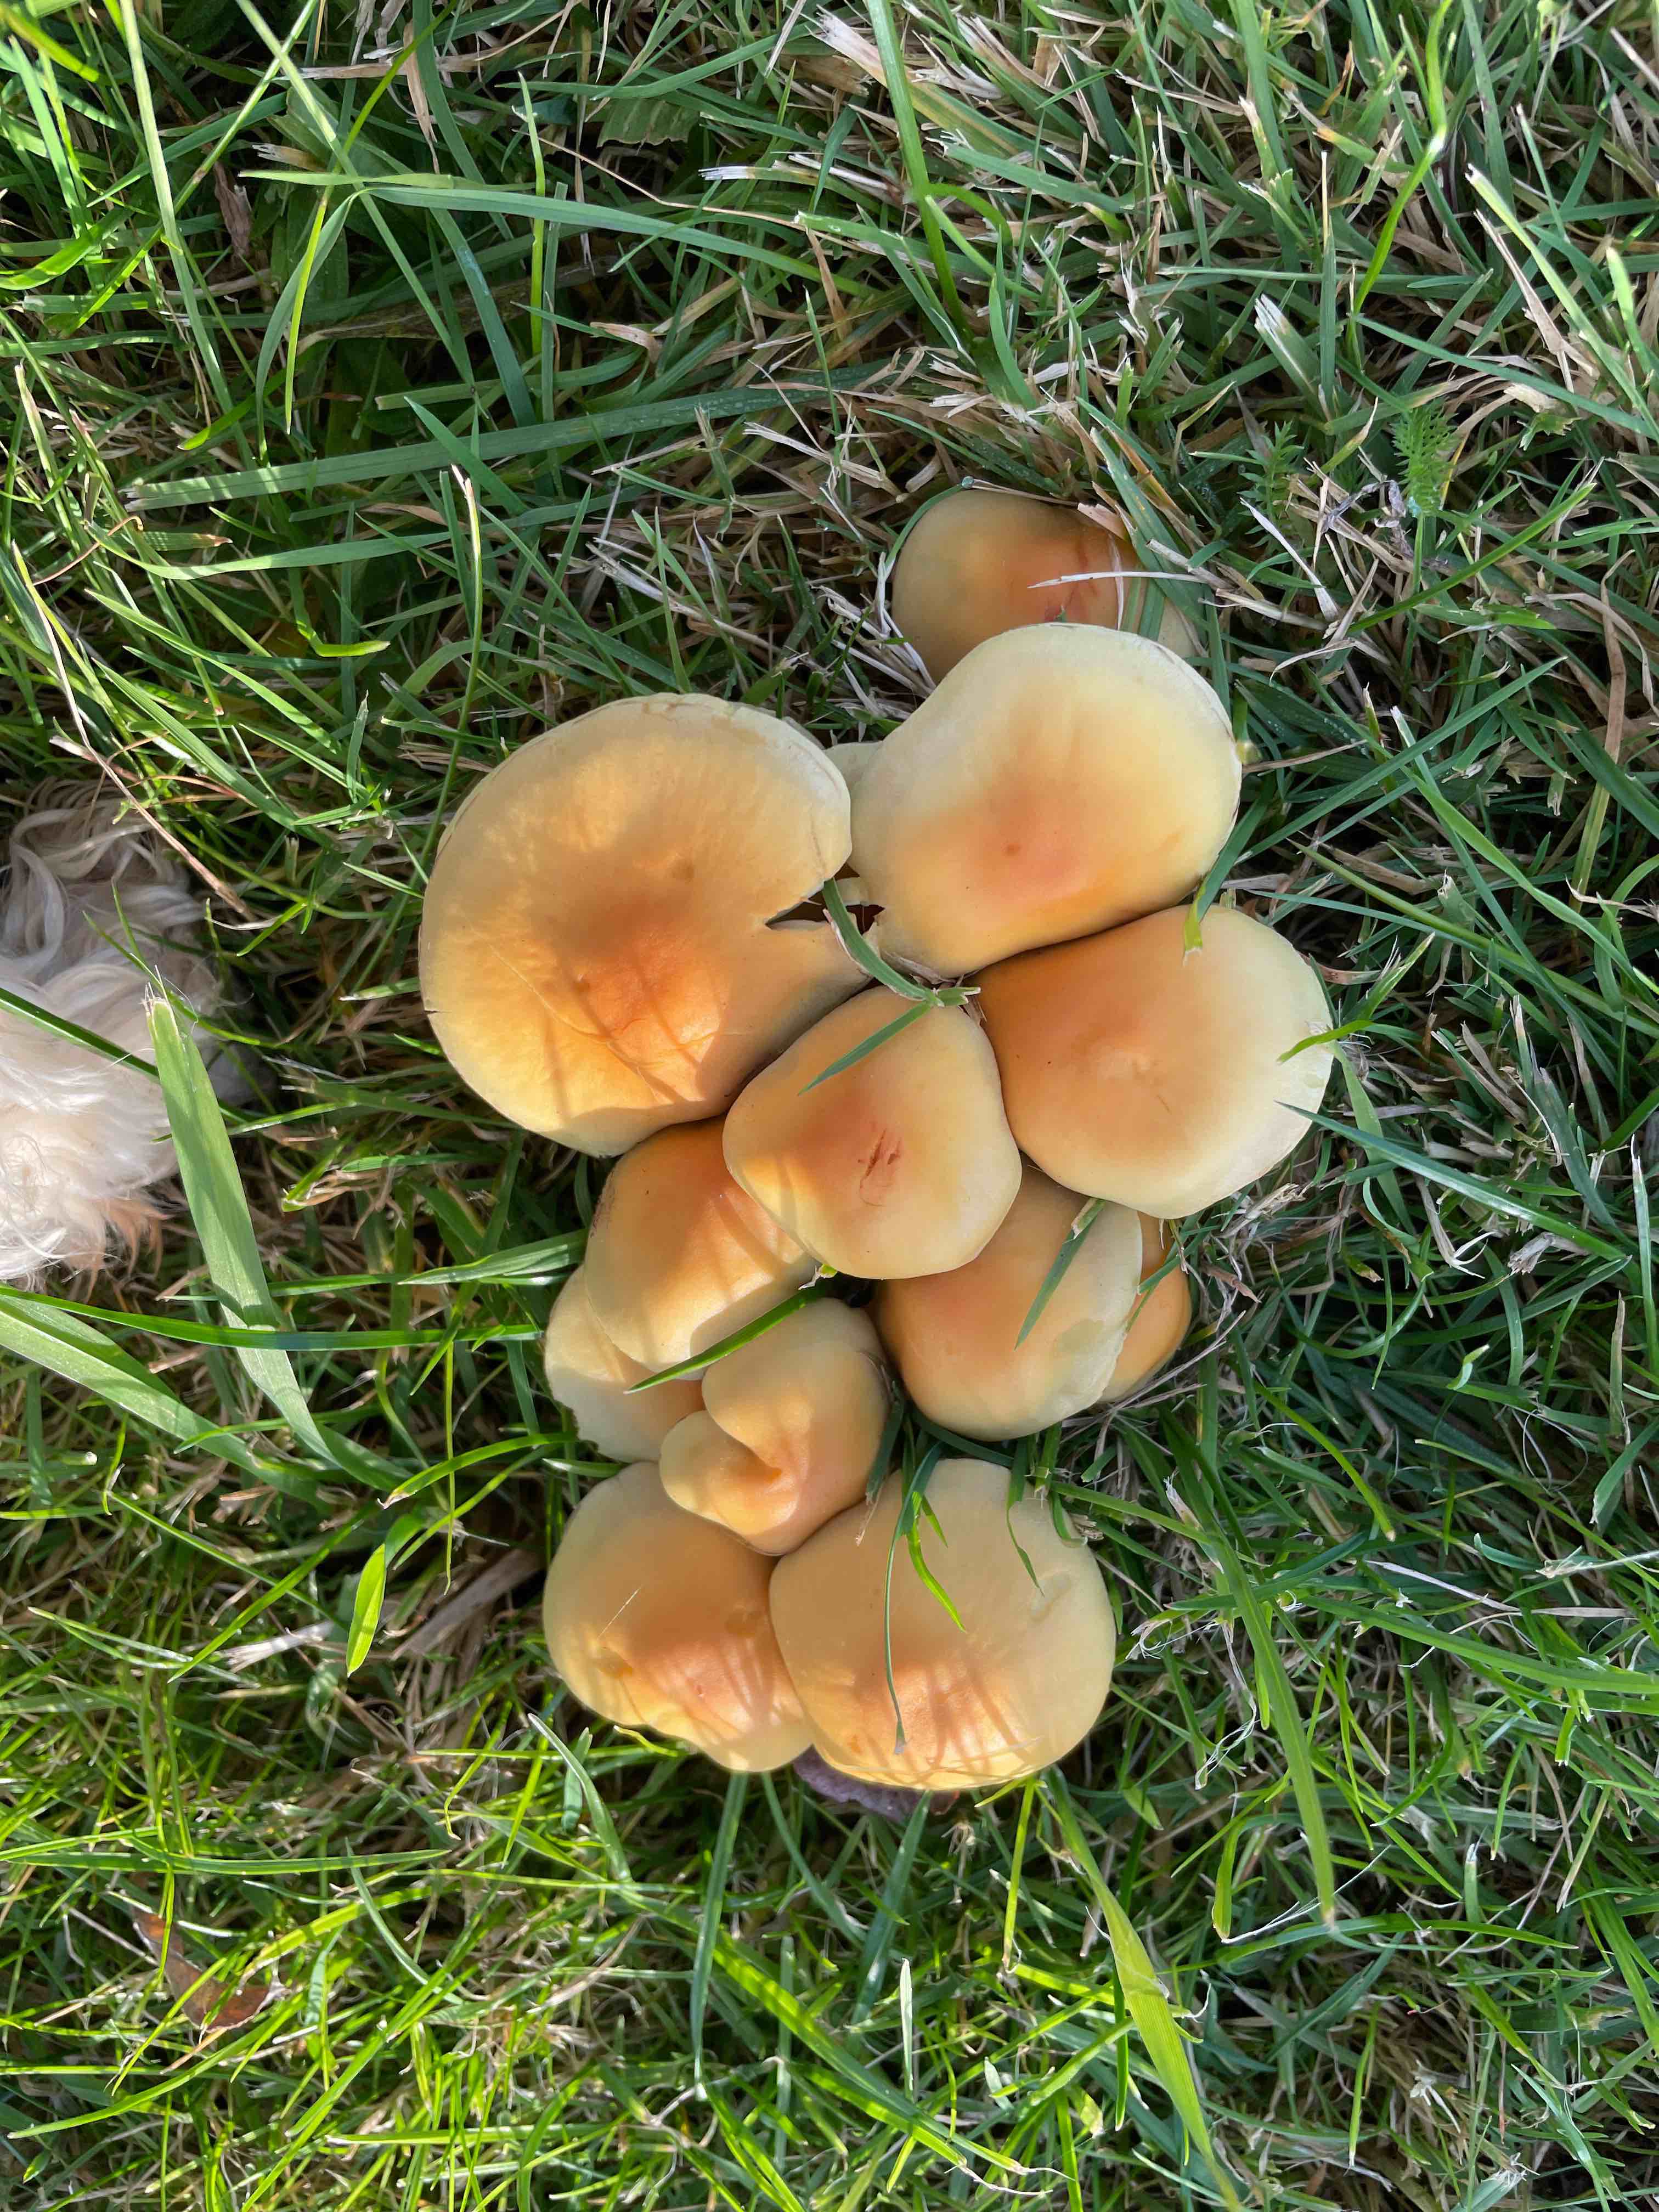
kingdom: Fungi
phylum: Basidiomycota
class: Agaricomycetes
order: Agaricales
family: Strophariaceae
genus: Hypholoma
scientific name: Hypholoma fasciculare
